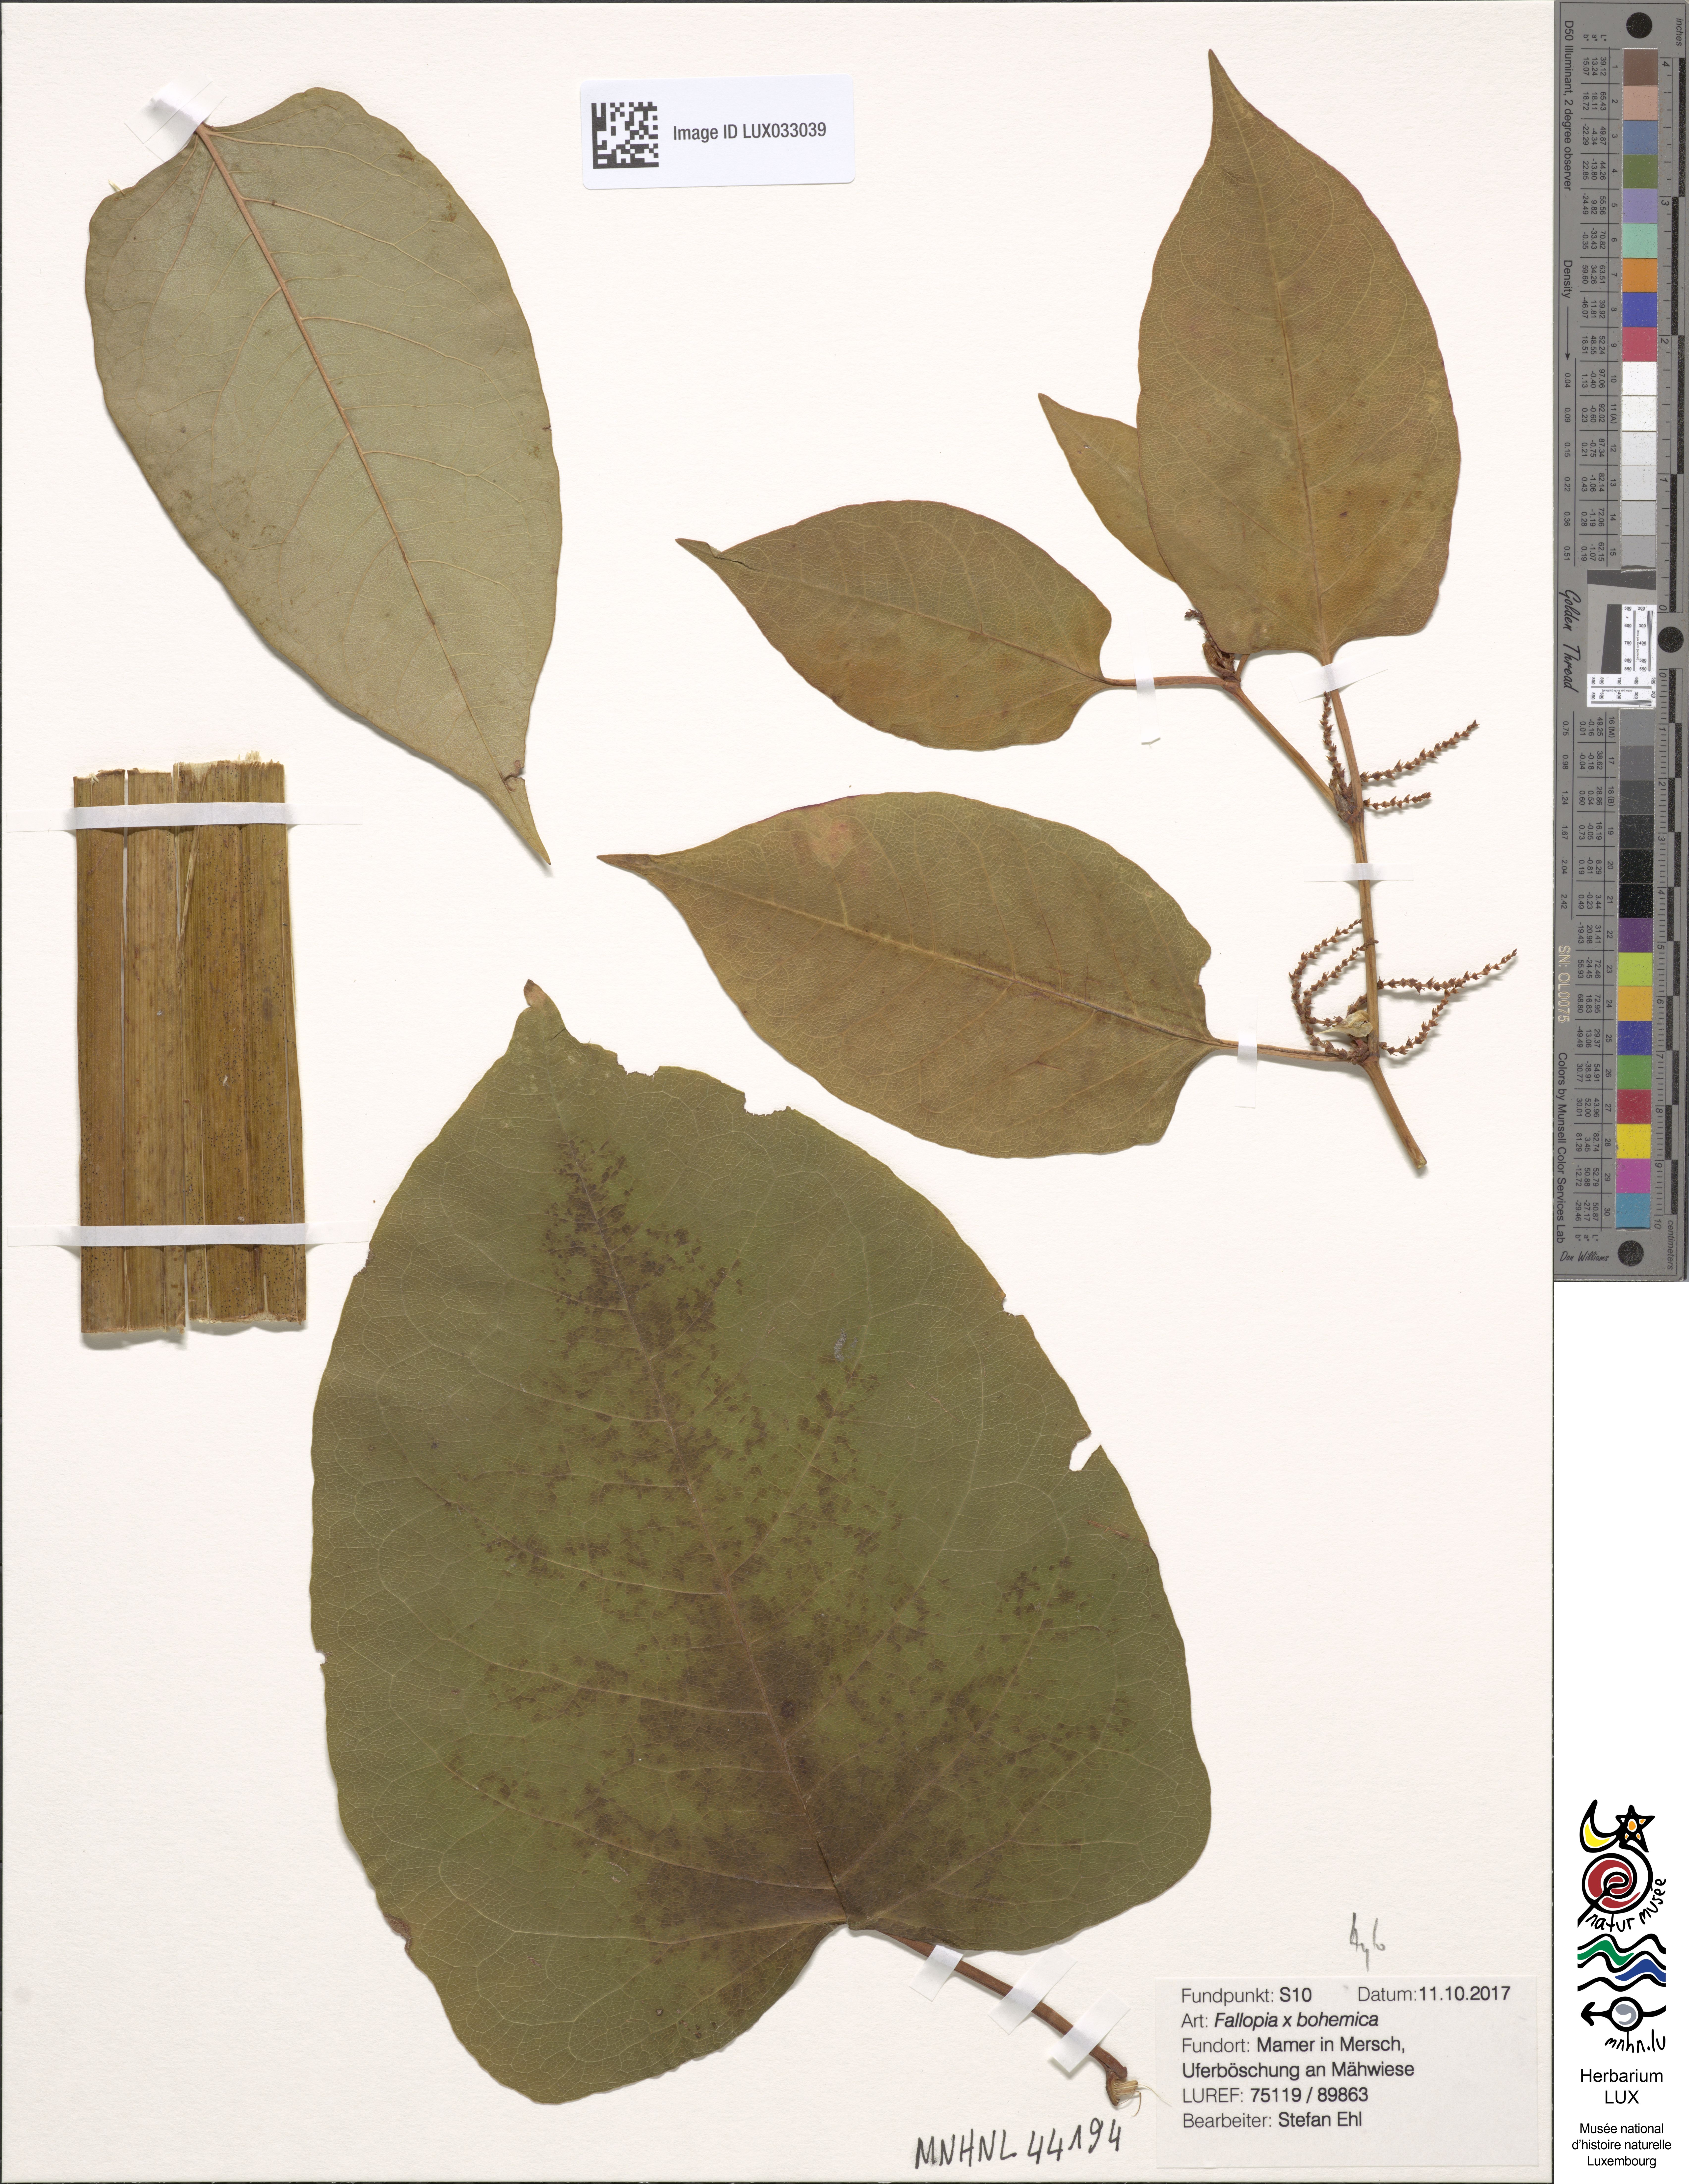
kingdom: Plantae
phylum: Tracheophyta
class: Magnoliopsida
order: Caryophyllales
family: Polygonaceae
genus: Reynoutria
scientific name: Reynoutria bohemica
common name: Bohemian knotweed
